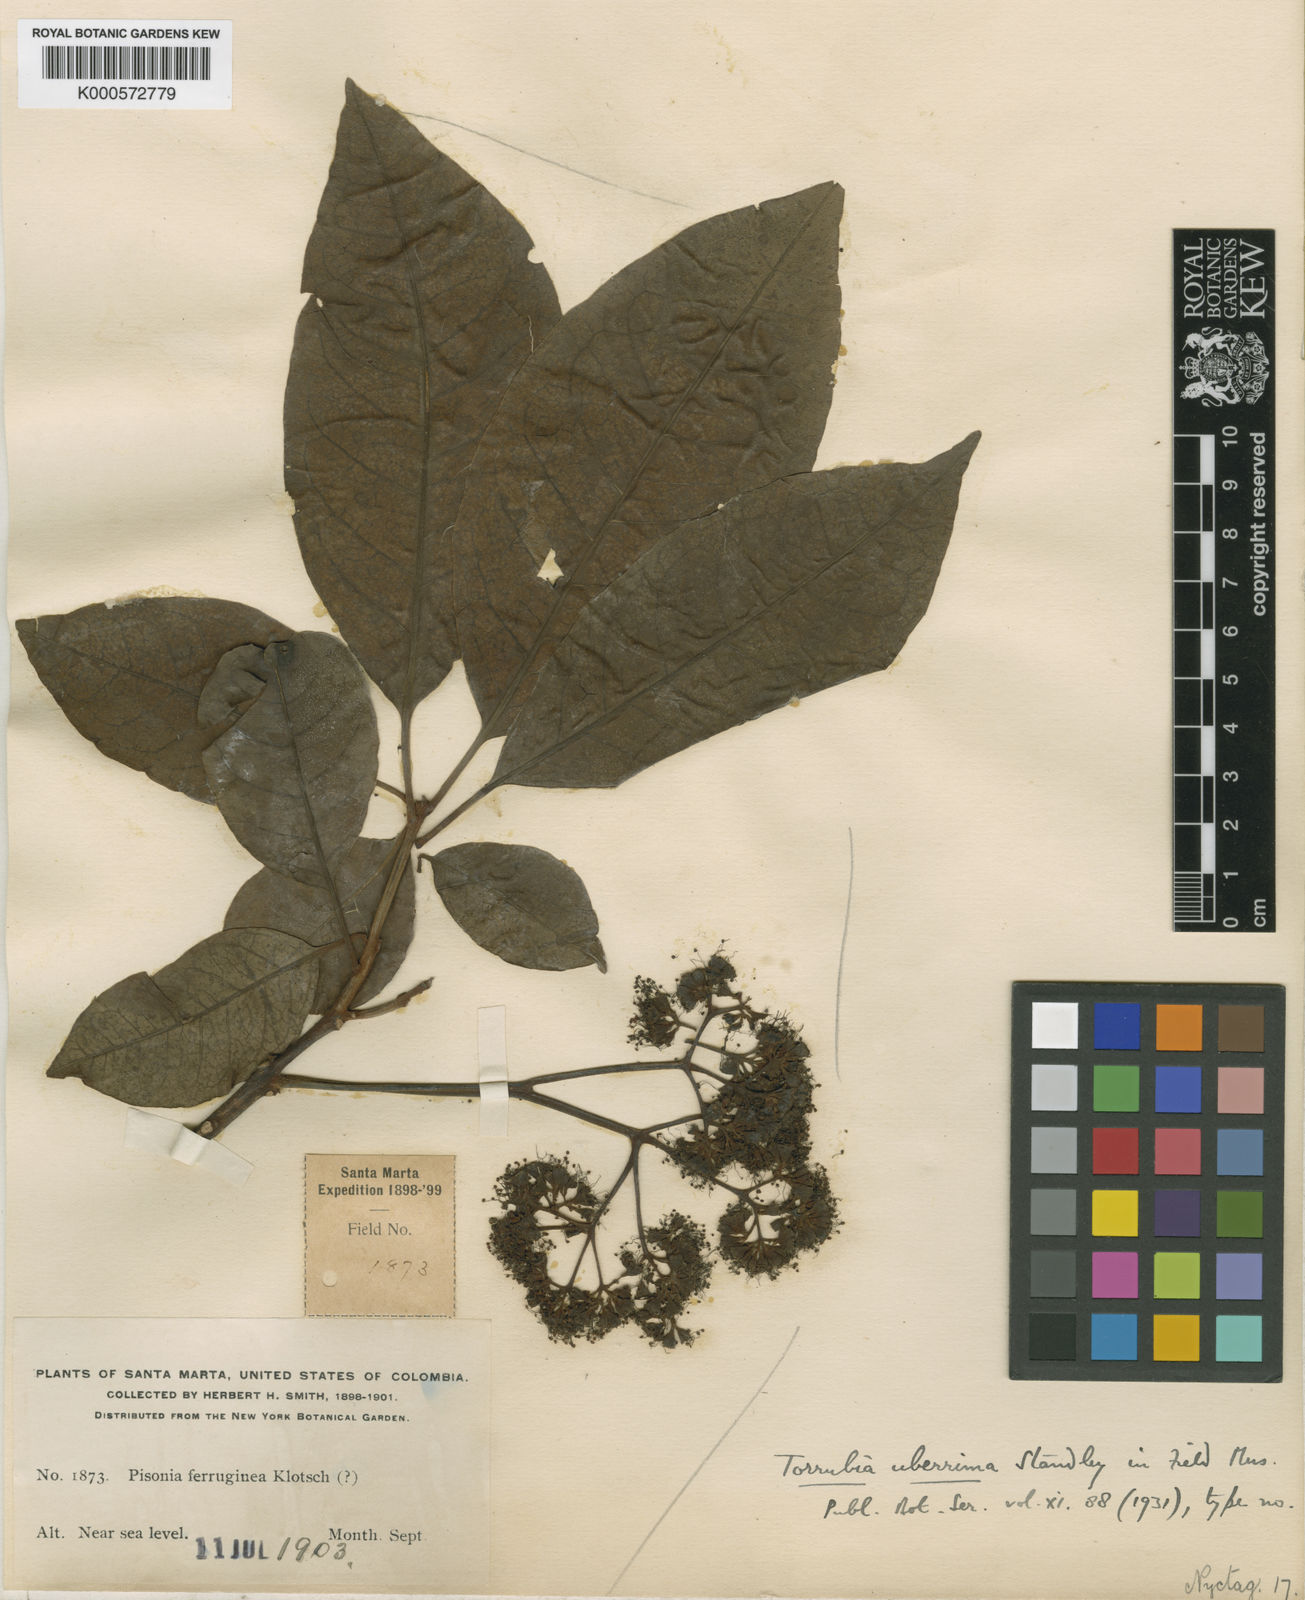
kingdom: Plantae
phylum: Tracheophyta
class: Magnoliopsida
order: Caryophyllales
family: Nyctaginaceae
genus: Guapira
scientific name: Guapira uberrima
